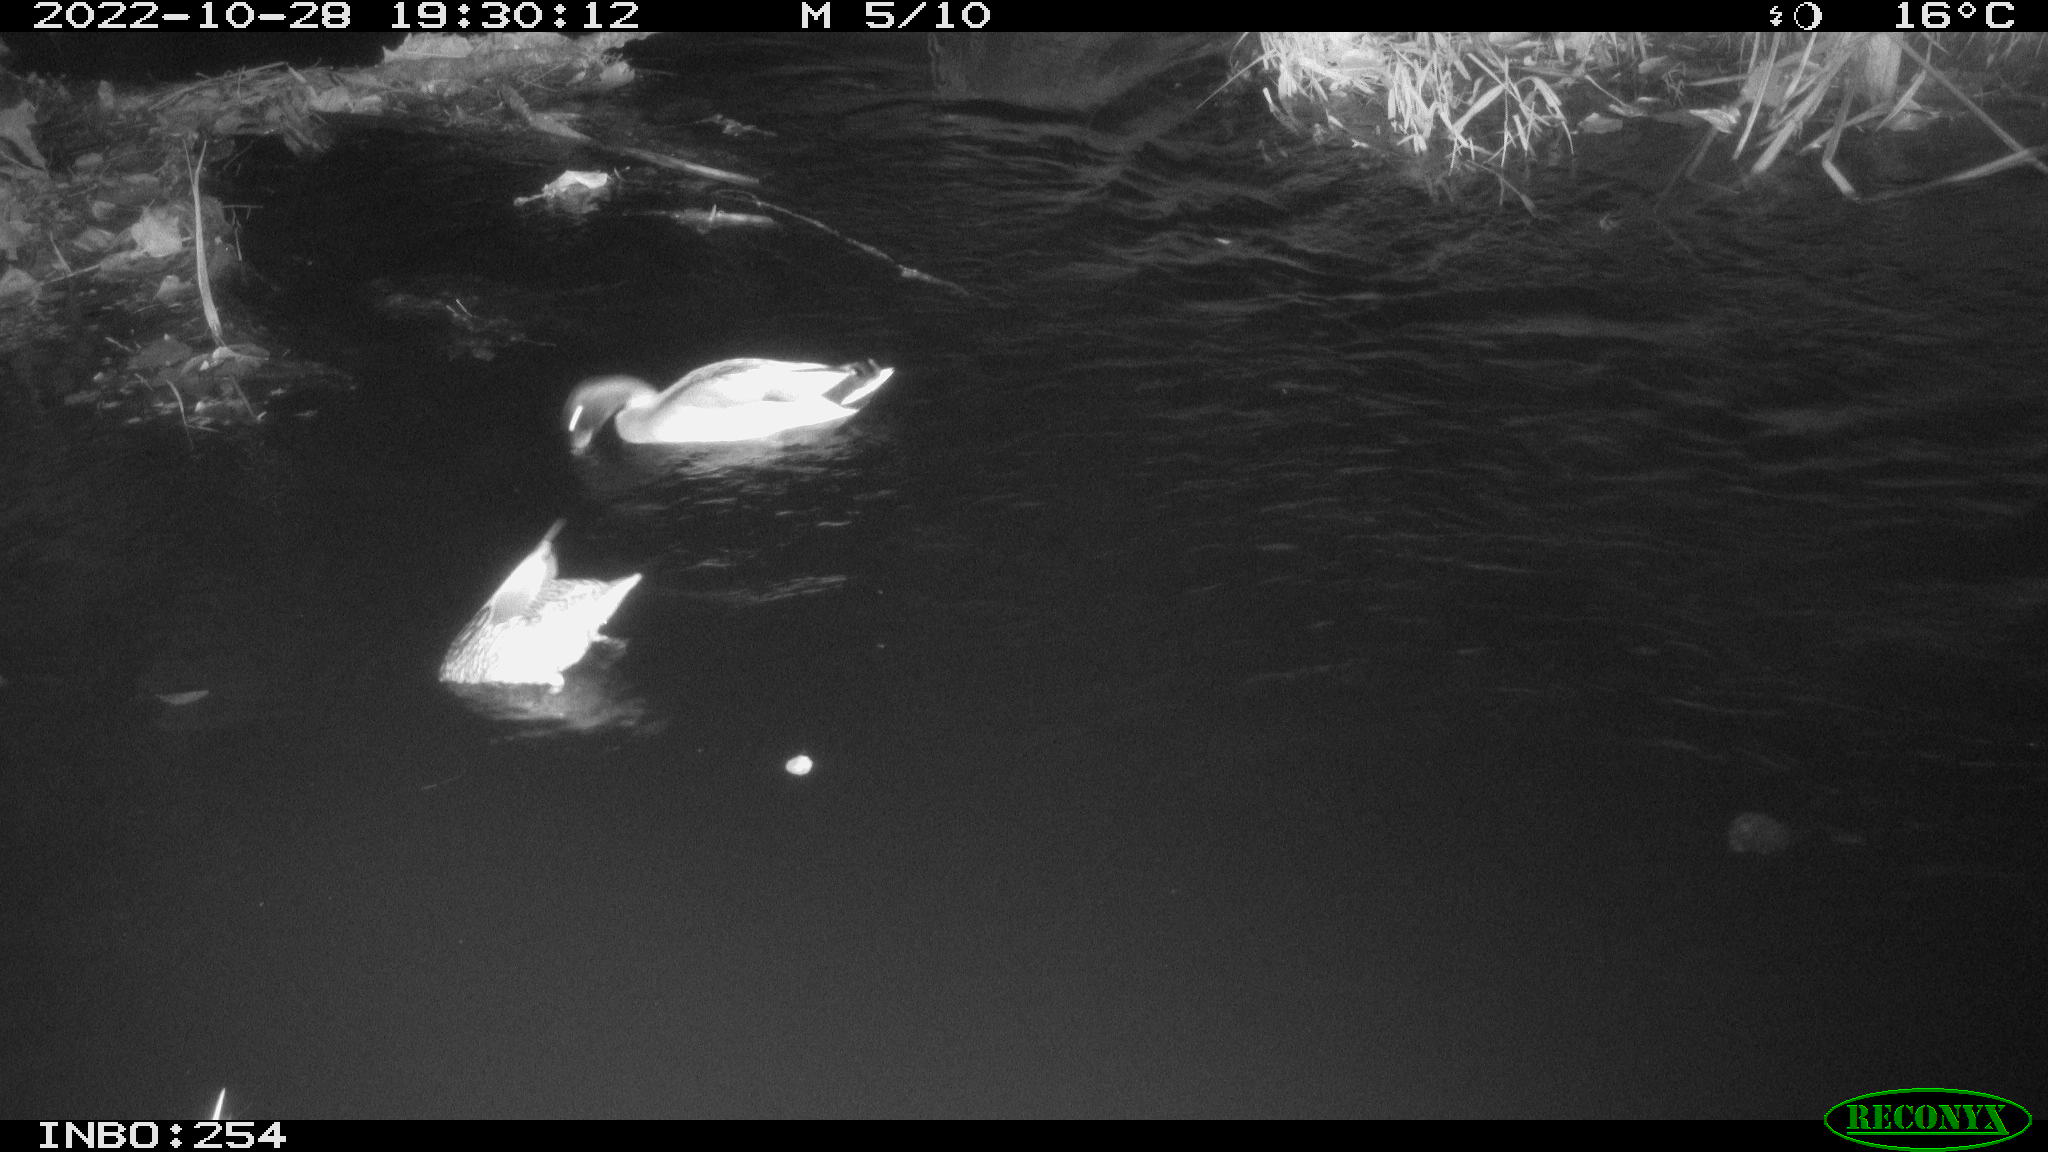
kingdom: Animalia
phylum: Chordata
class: Aves
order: Anseriformes
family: Anatidae
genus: Anas
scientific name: Anas
